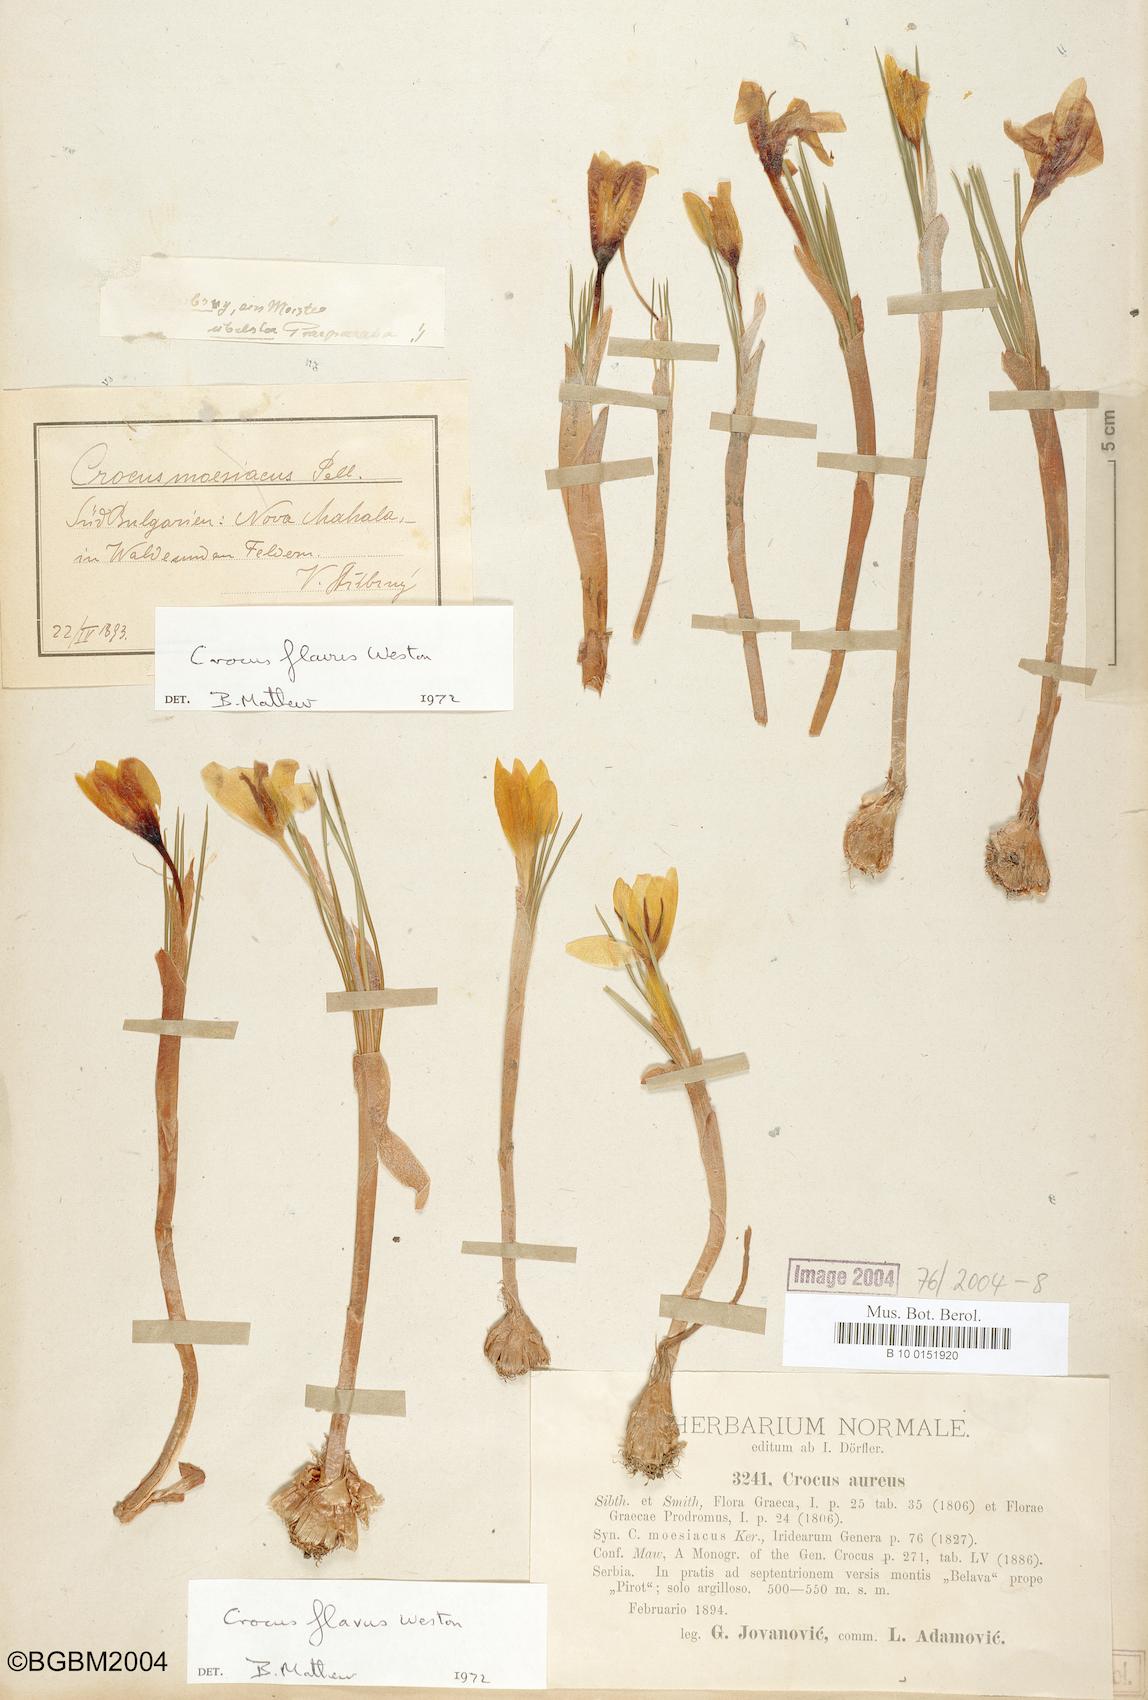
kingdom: Plantae
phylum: Tracheophyta
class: Liliopsida
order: Asparagales
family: Iridaceae
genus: Crocus
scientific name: Crocus flavus
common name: Yellow crocus
